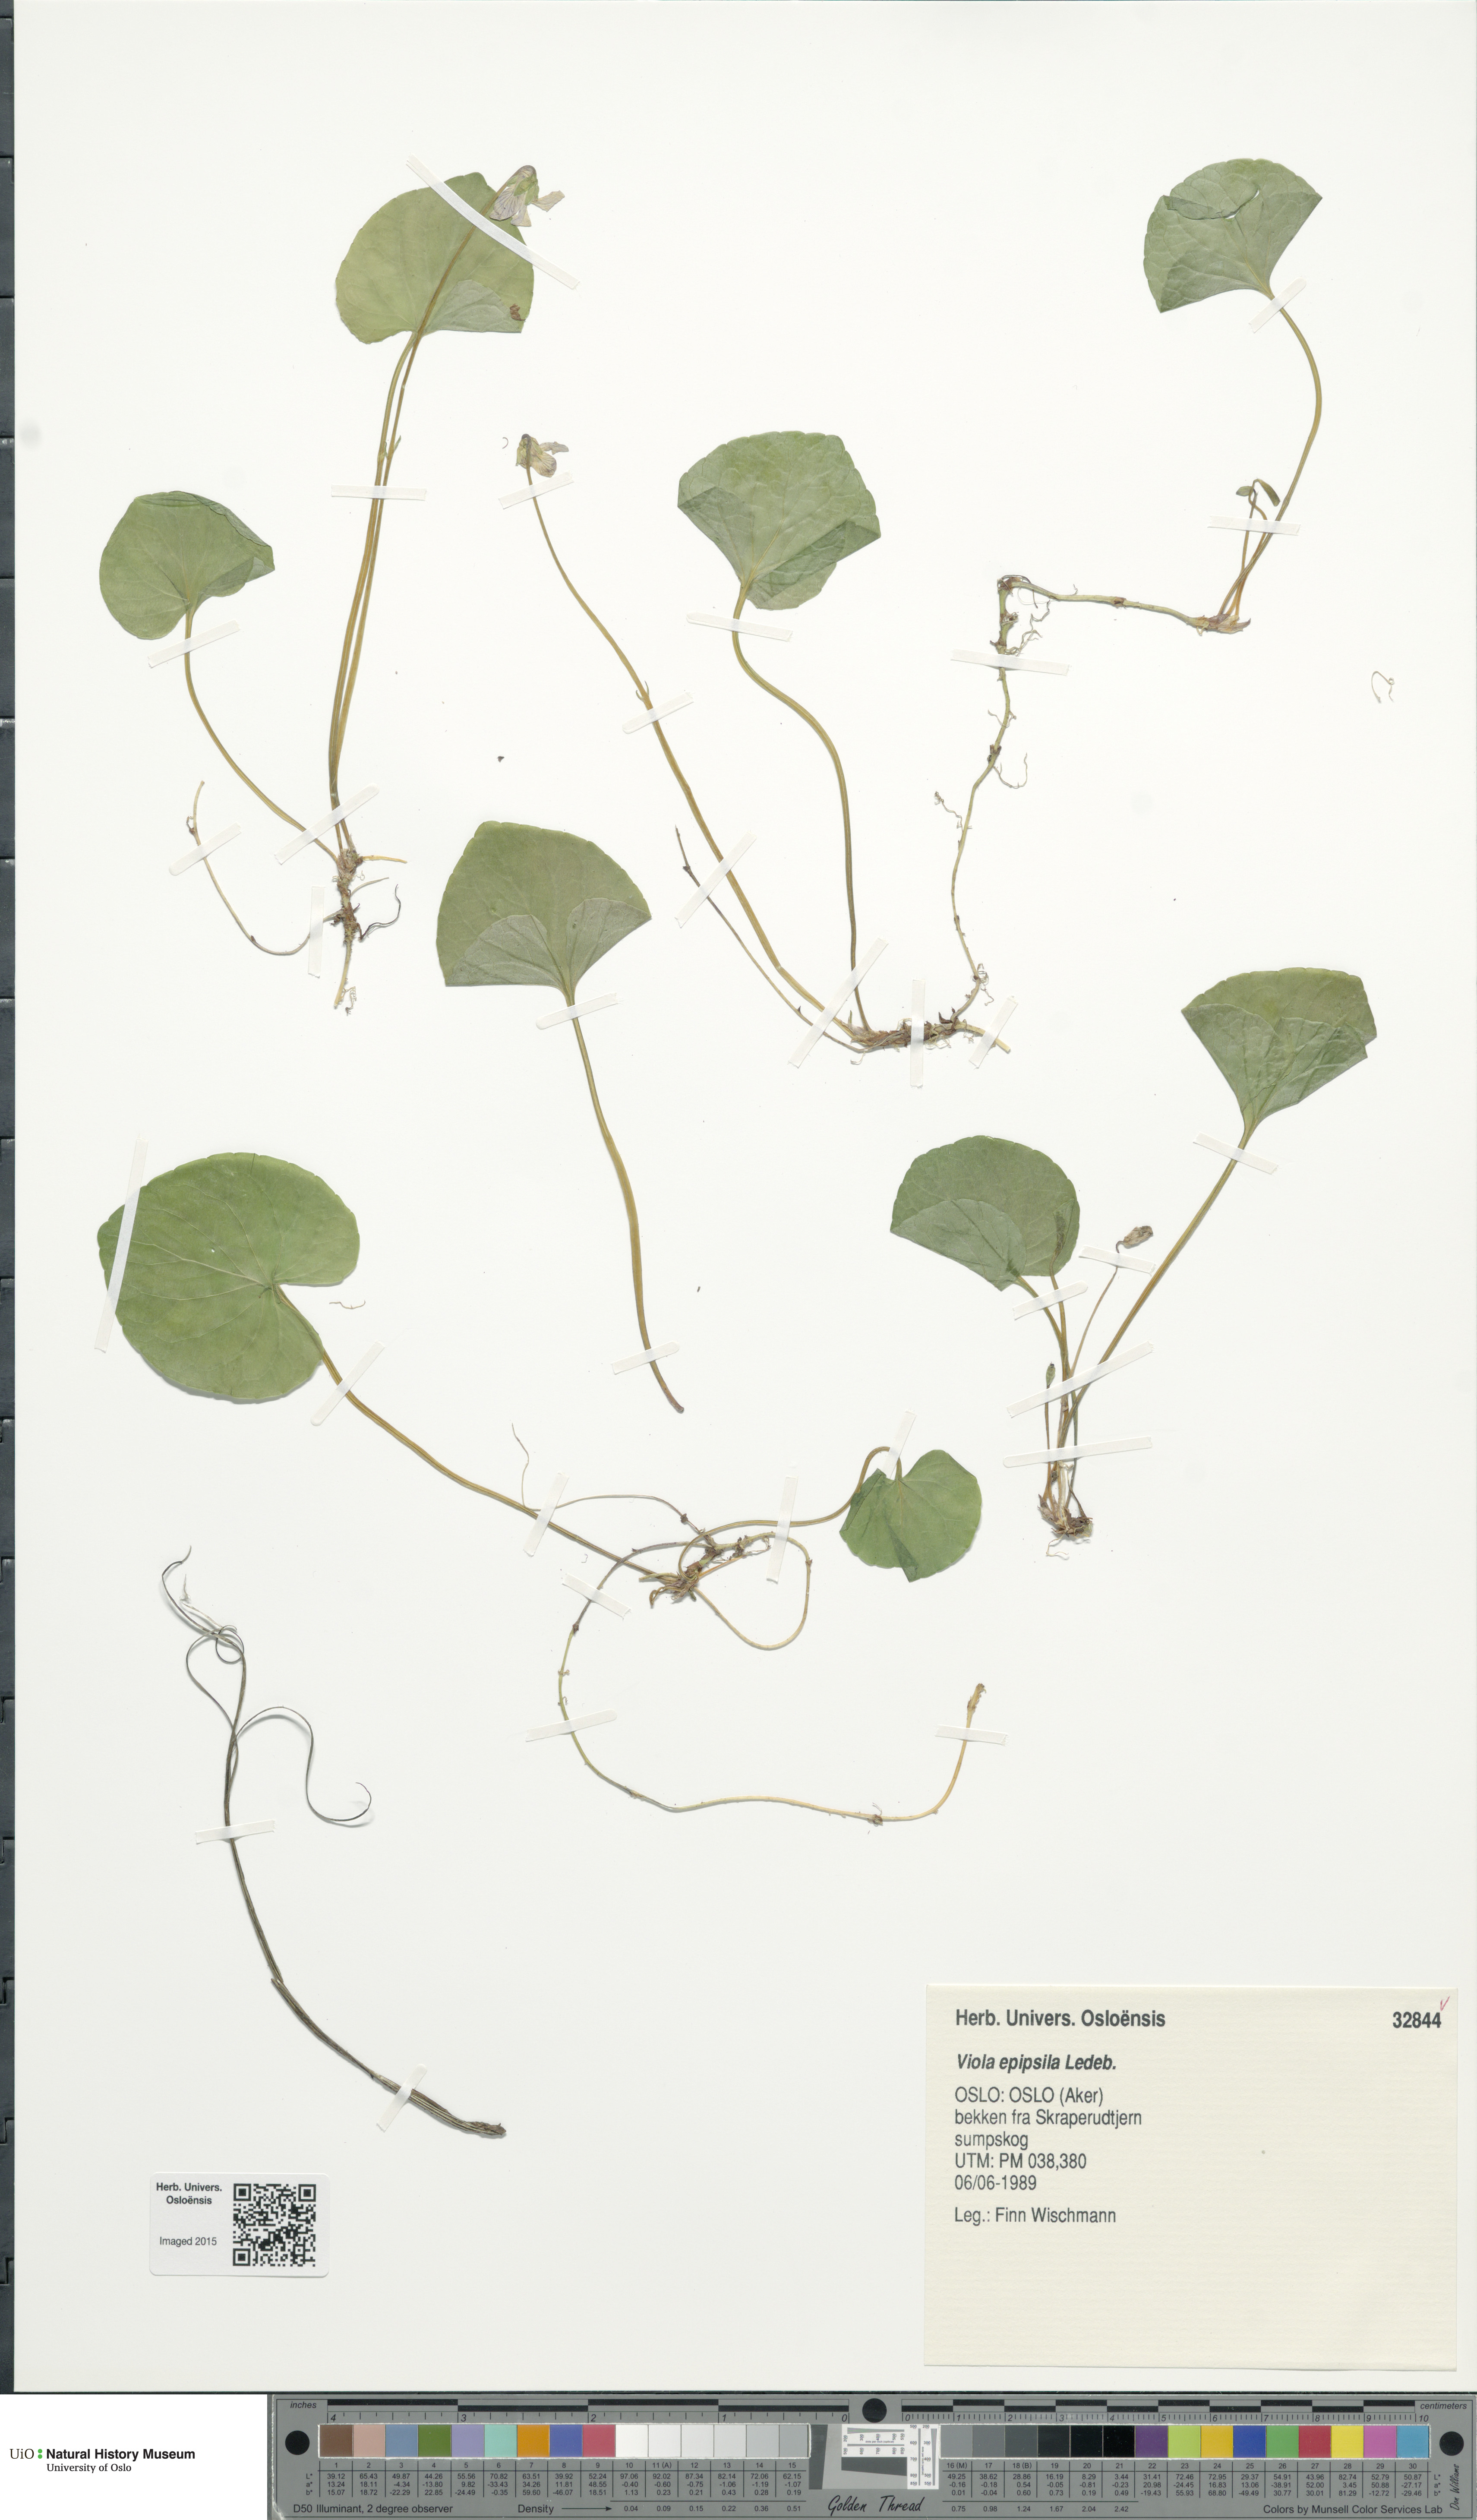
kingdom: Plantae
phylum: Tracheophyta
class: Magnoliopsida
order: Malpighiales
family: Violaceae
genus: Viola
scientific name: Viola epipsila
